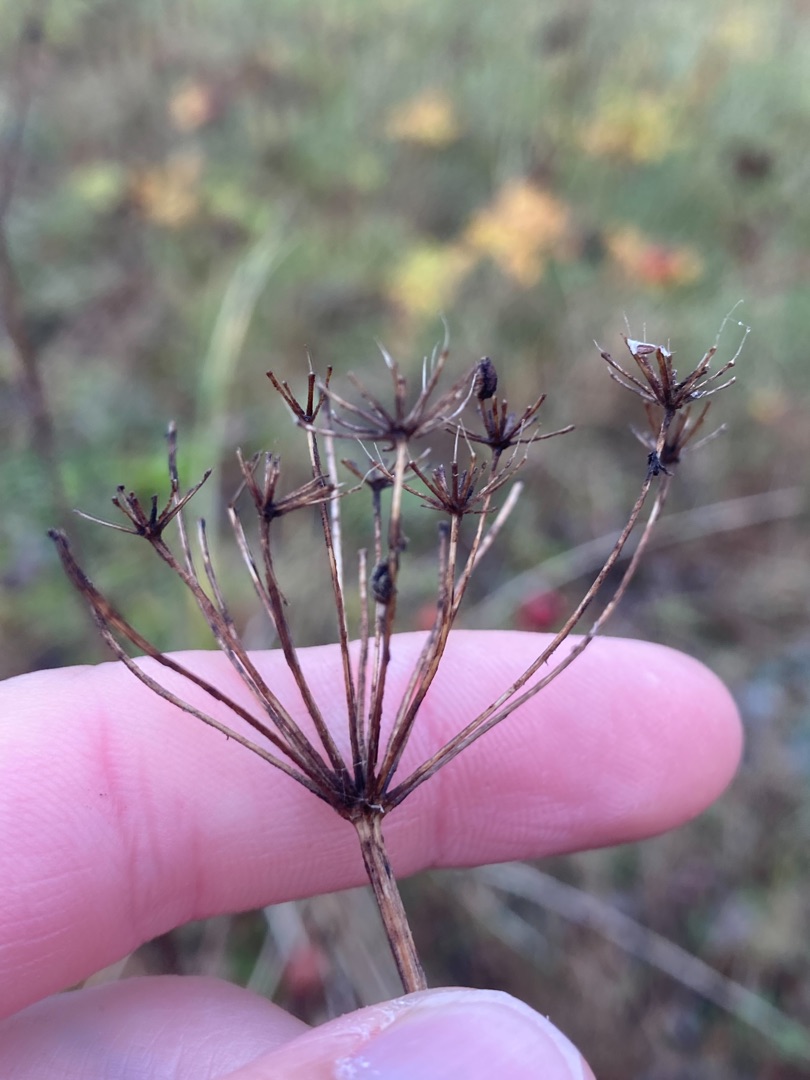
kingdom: Plantae
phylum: Tracheophyta
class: Magnoliopsida
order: Apiales
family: Apiaceae
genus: Pimpinella
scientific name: Pimpinella saxifraga
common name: Almindelig pimpinelle
